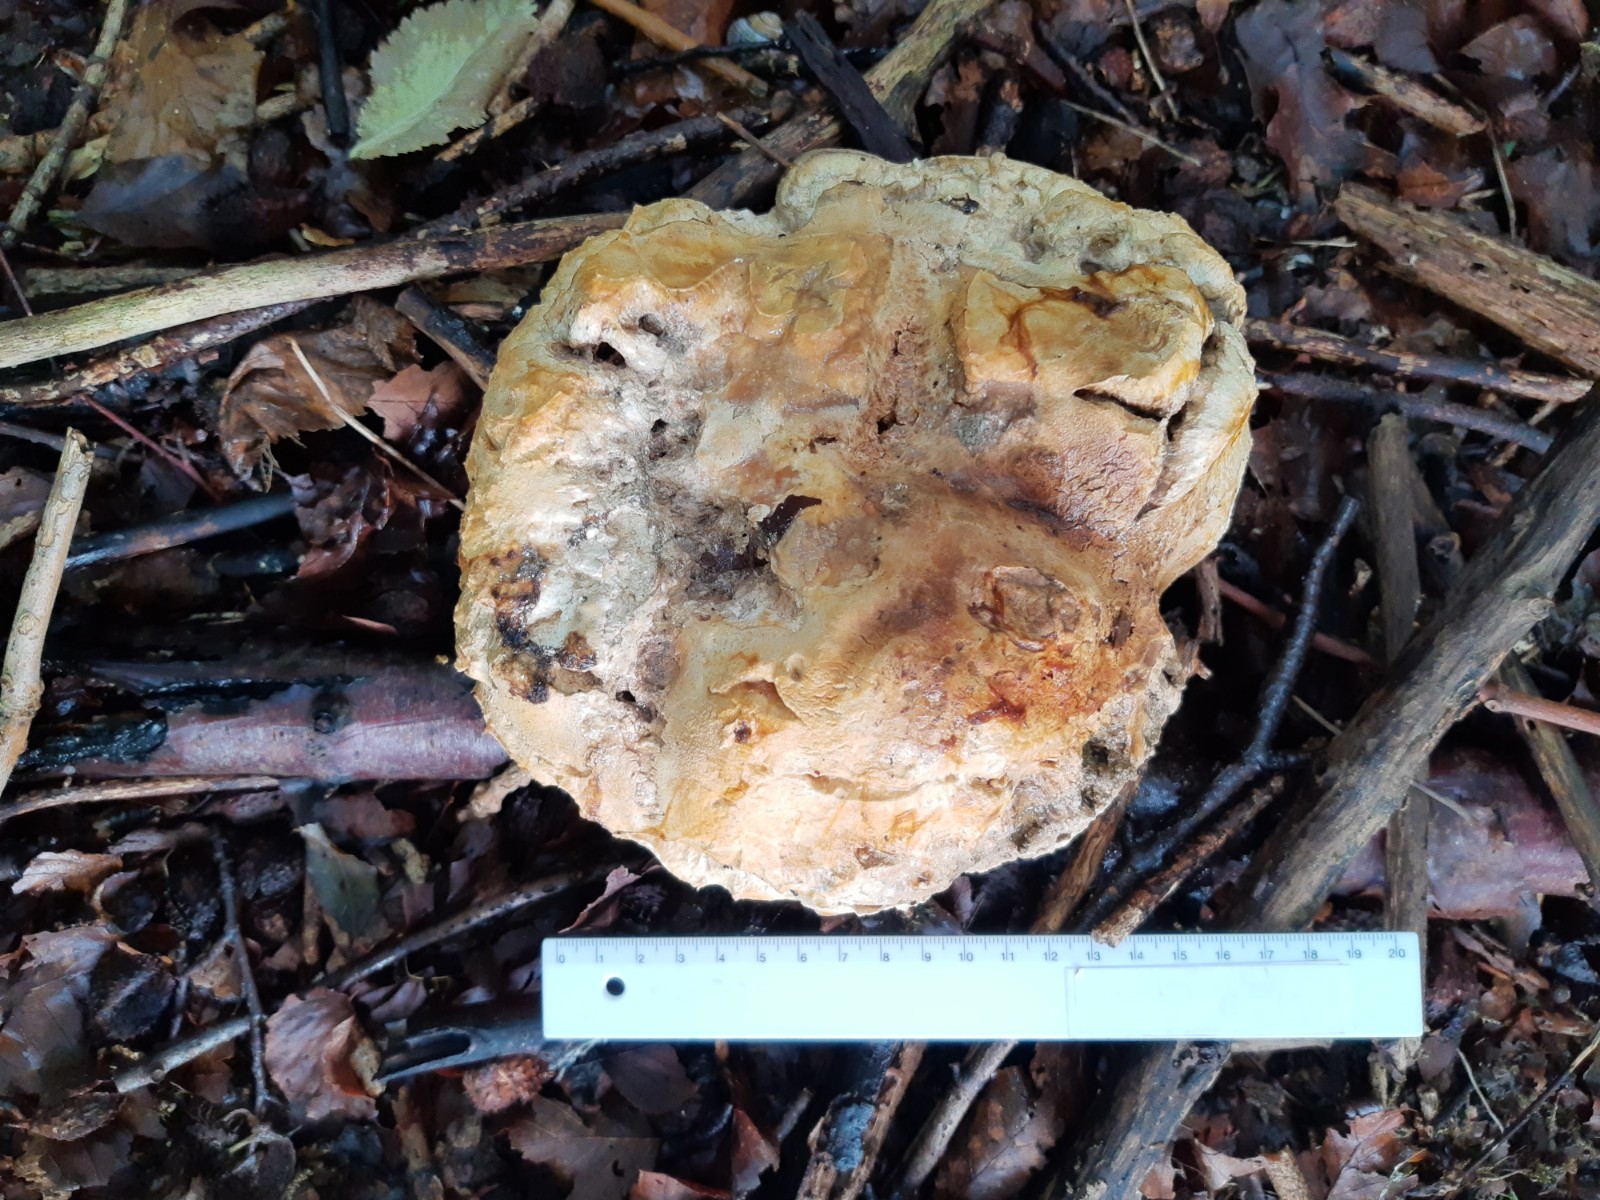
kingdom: Fungi
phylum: Basidiomycota
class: Agaricomycetes
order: Agaricales
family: Lycoperdaceae
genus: Calvatia
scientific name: Calvatia gigantea
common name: kæmpestøvbold
